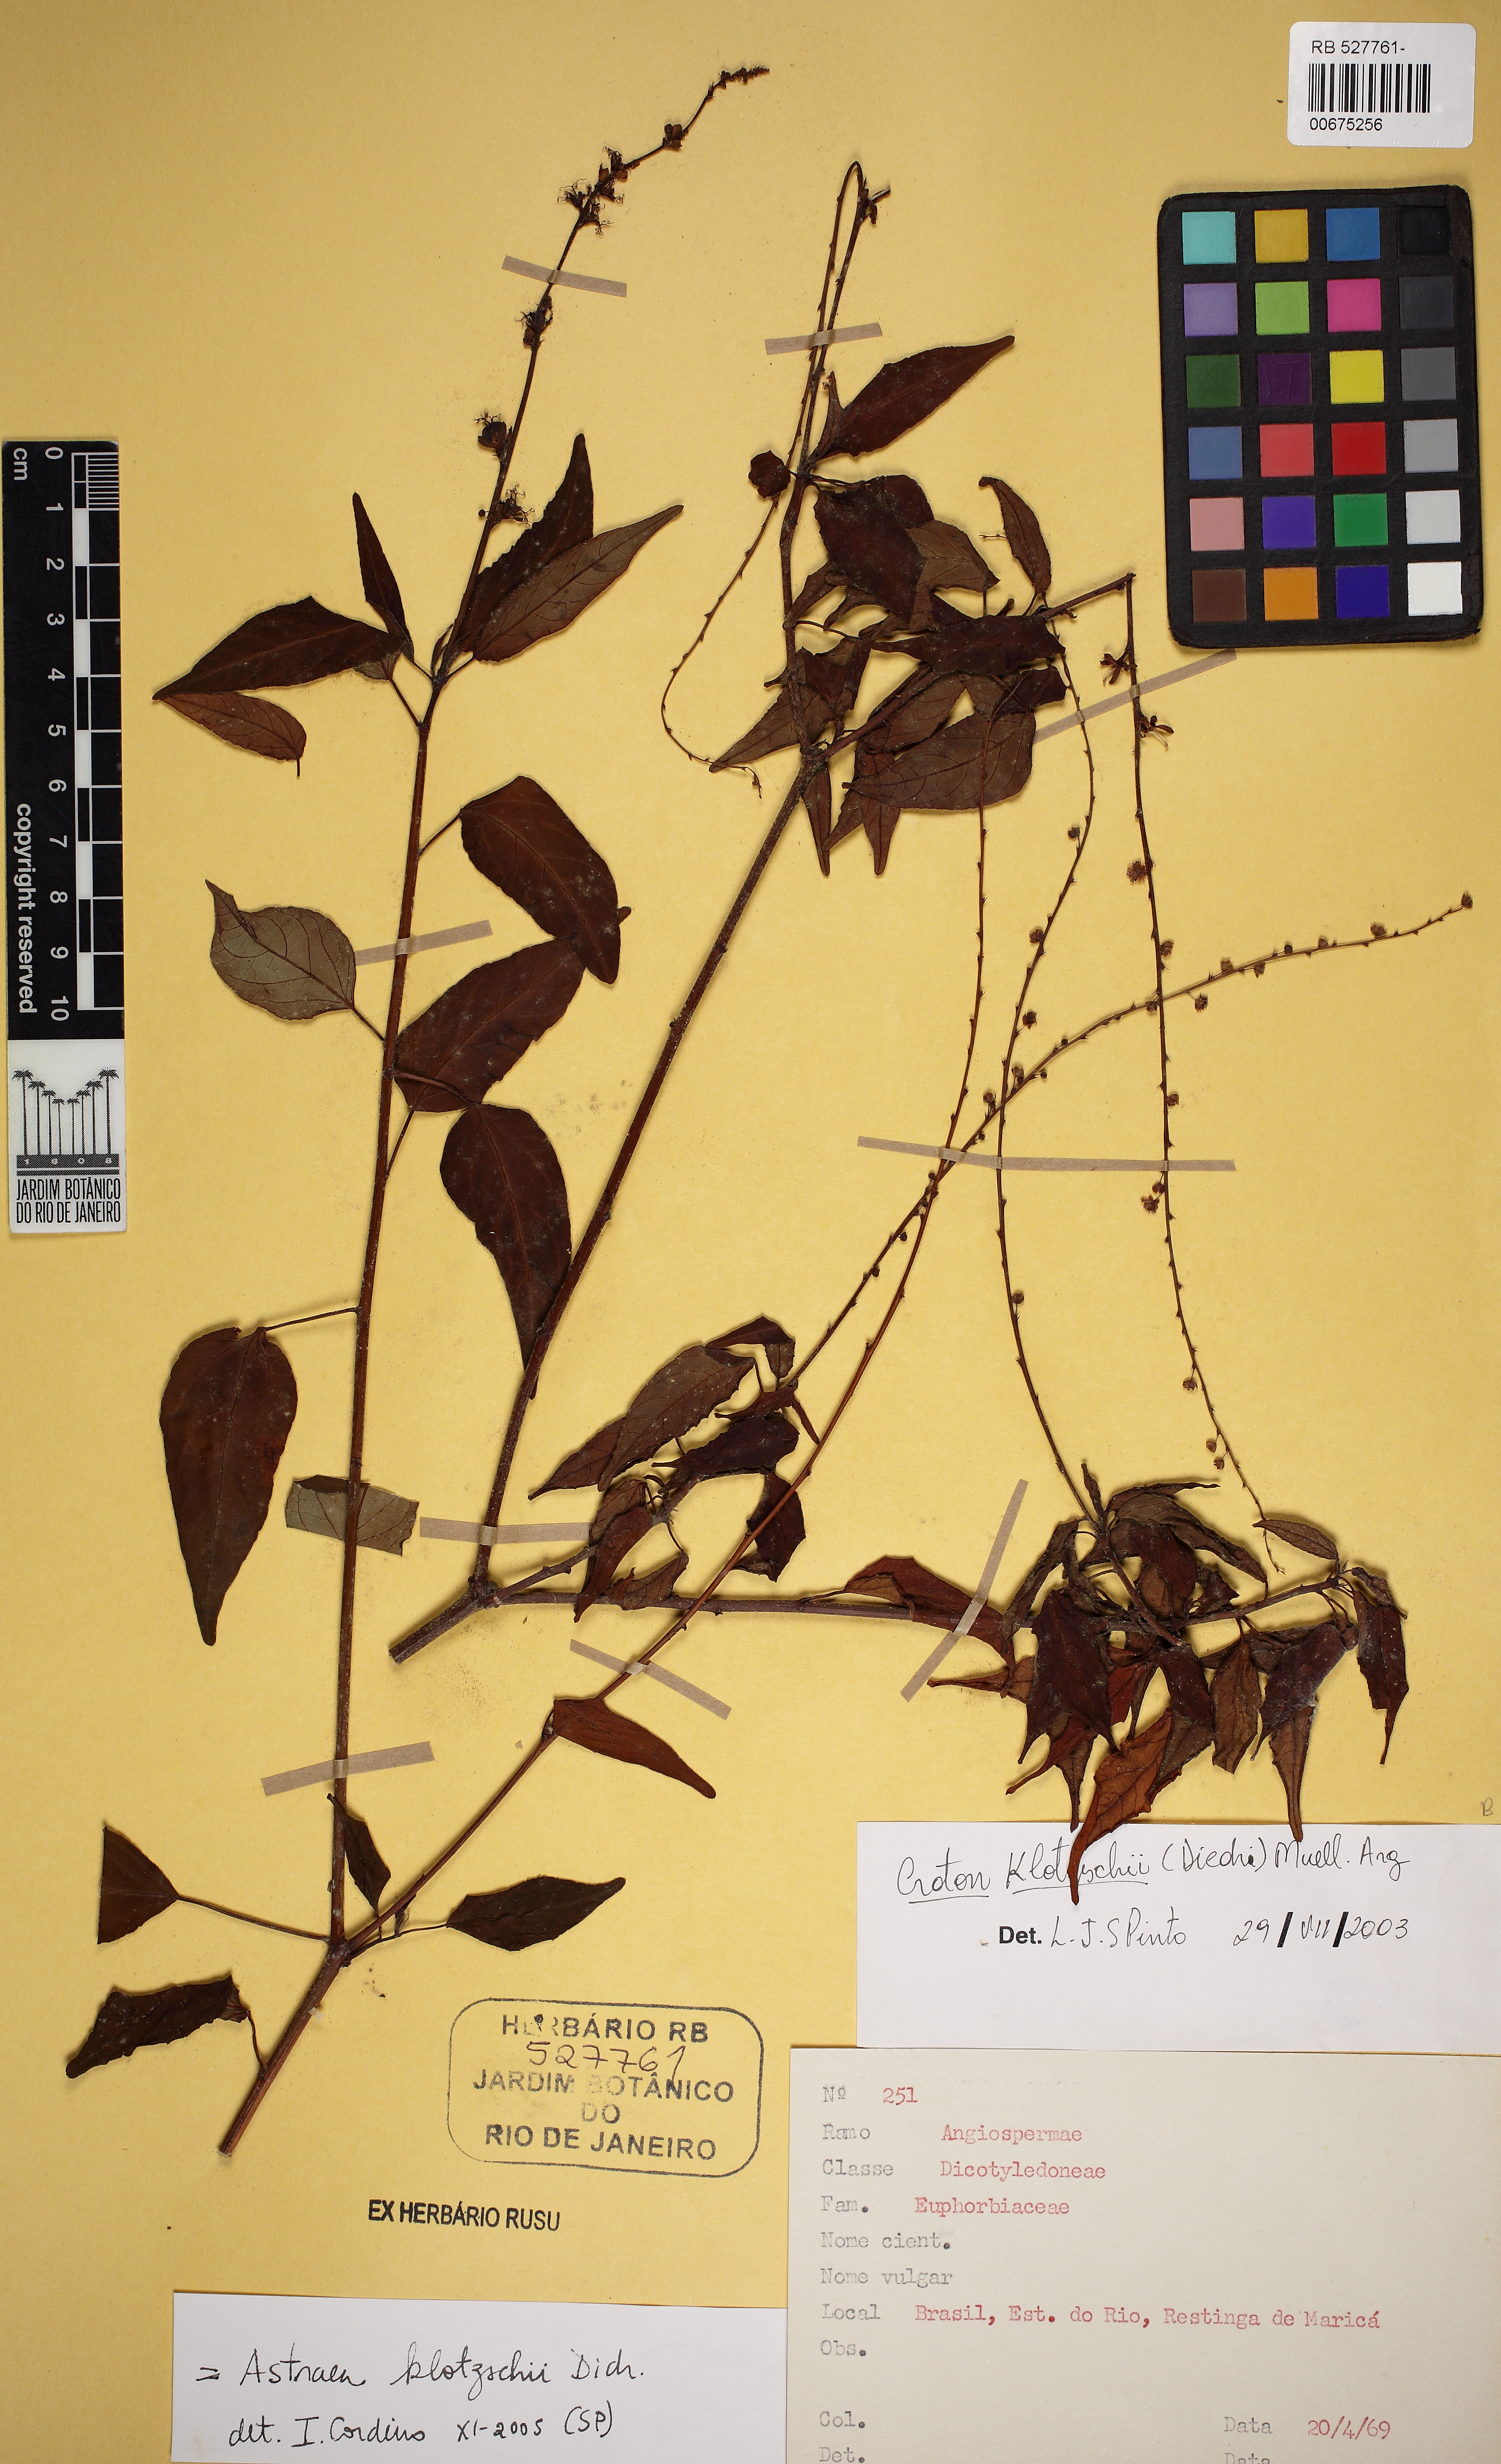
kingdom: Plantae
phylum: Tracheophyta
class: Magnoliopsida
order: Malpighiales
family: Euphorbiaceae
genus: Astraea
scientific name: Astraea macroura
